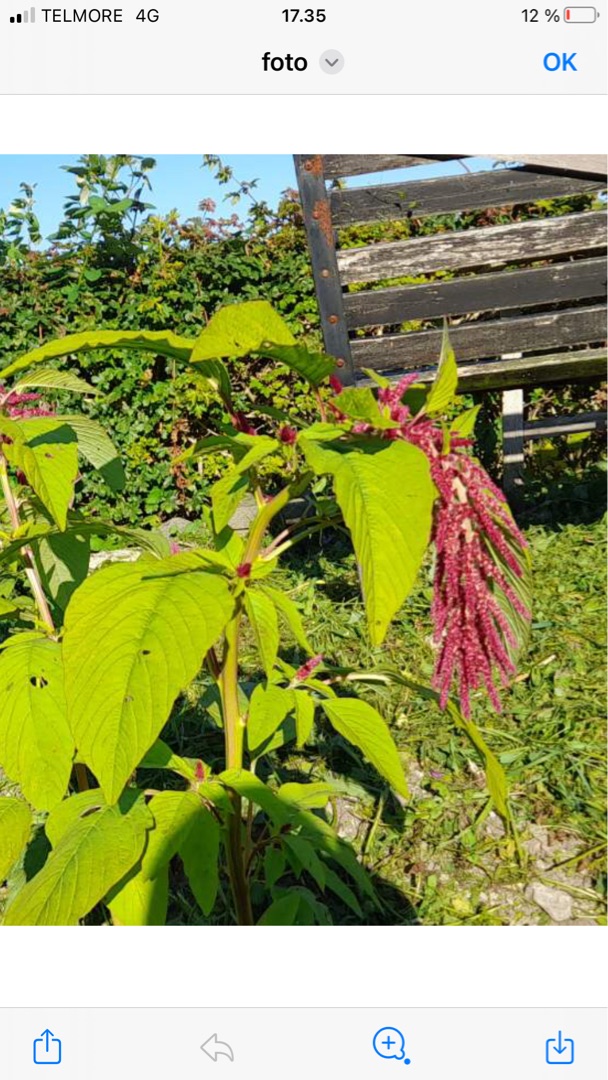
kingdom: Plantae
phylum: Tracheophyta
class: Magnoliopsida
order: Caryophyllales
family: Amaranthaceae
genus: Amaranthus
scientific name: Amaranthus caudatus
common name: Rævehale-amarant
